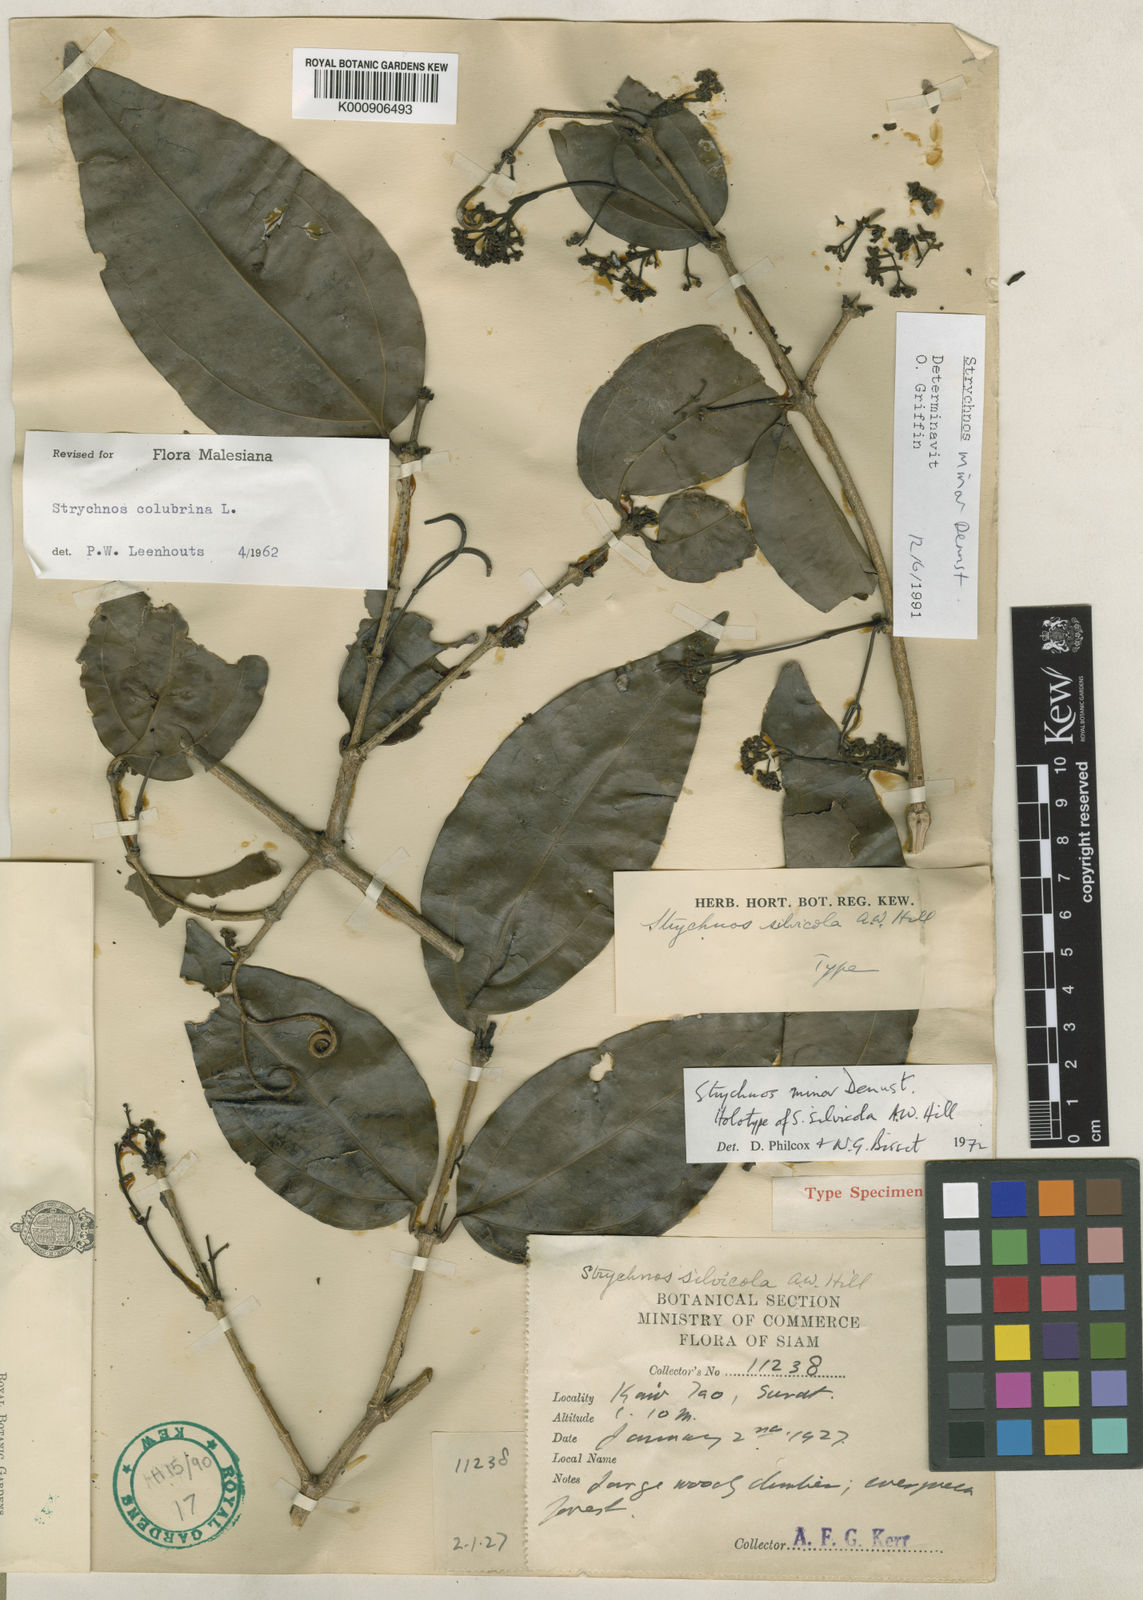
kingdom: Plantae
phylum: Tracheophyta
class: Magnoliopsida
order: Gentianales
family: Loganiaceae
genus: Strychnos
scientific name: Strychnos minor
